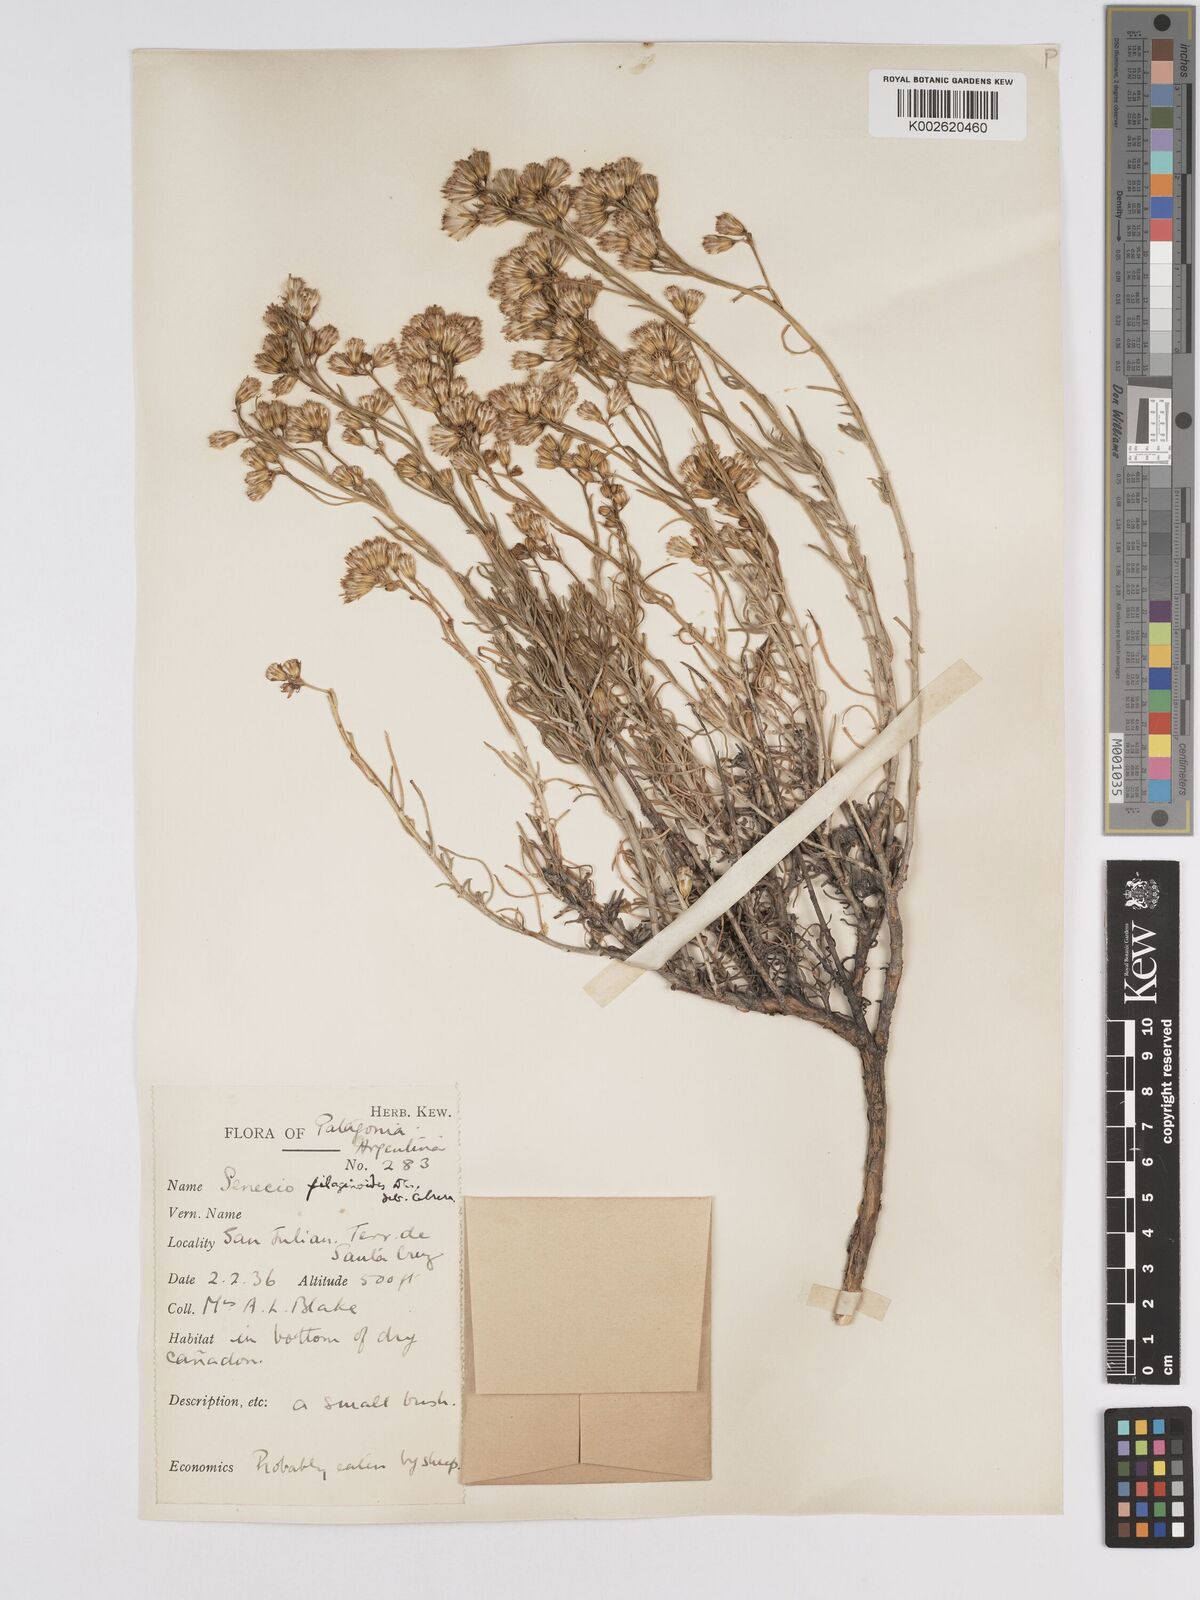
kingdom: Plantae
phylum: Tracheophyta
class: Magnoliopsida
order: Asterales
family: Asteraceae
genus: Senecio
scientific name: Senecio filaginoides
